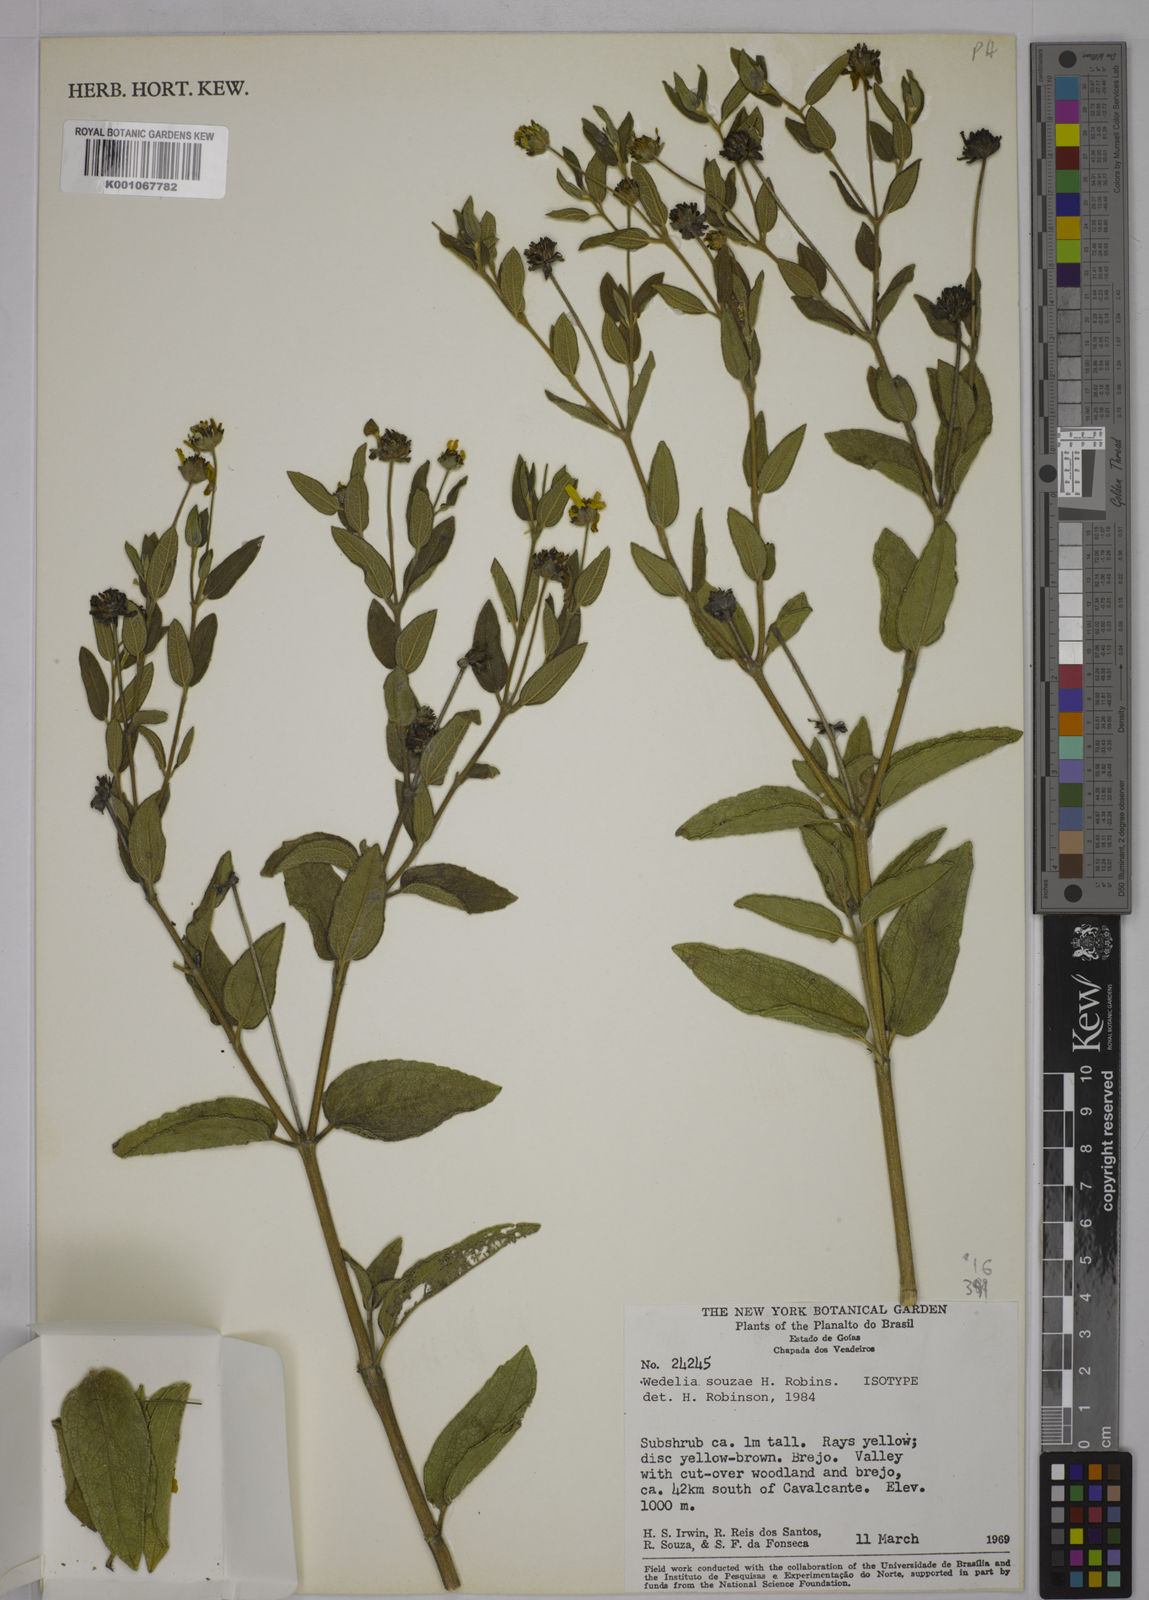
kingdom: Plantae
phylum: Tracheophyta
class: Magnoliopsida
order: Asterales
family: Asteraceae
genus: Wedelia
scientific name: Wedelia souzae
